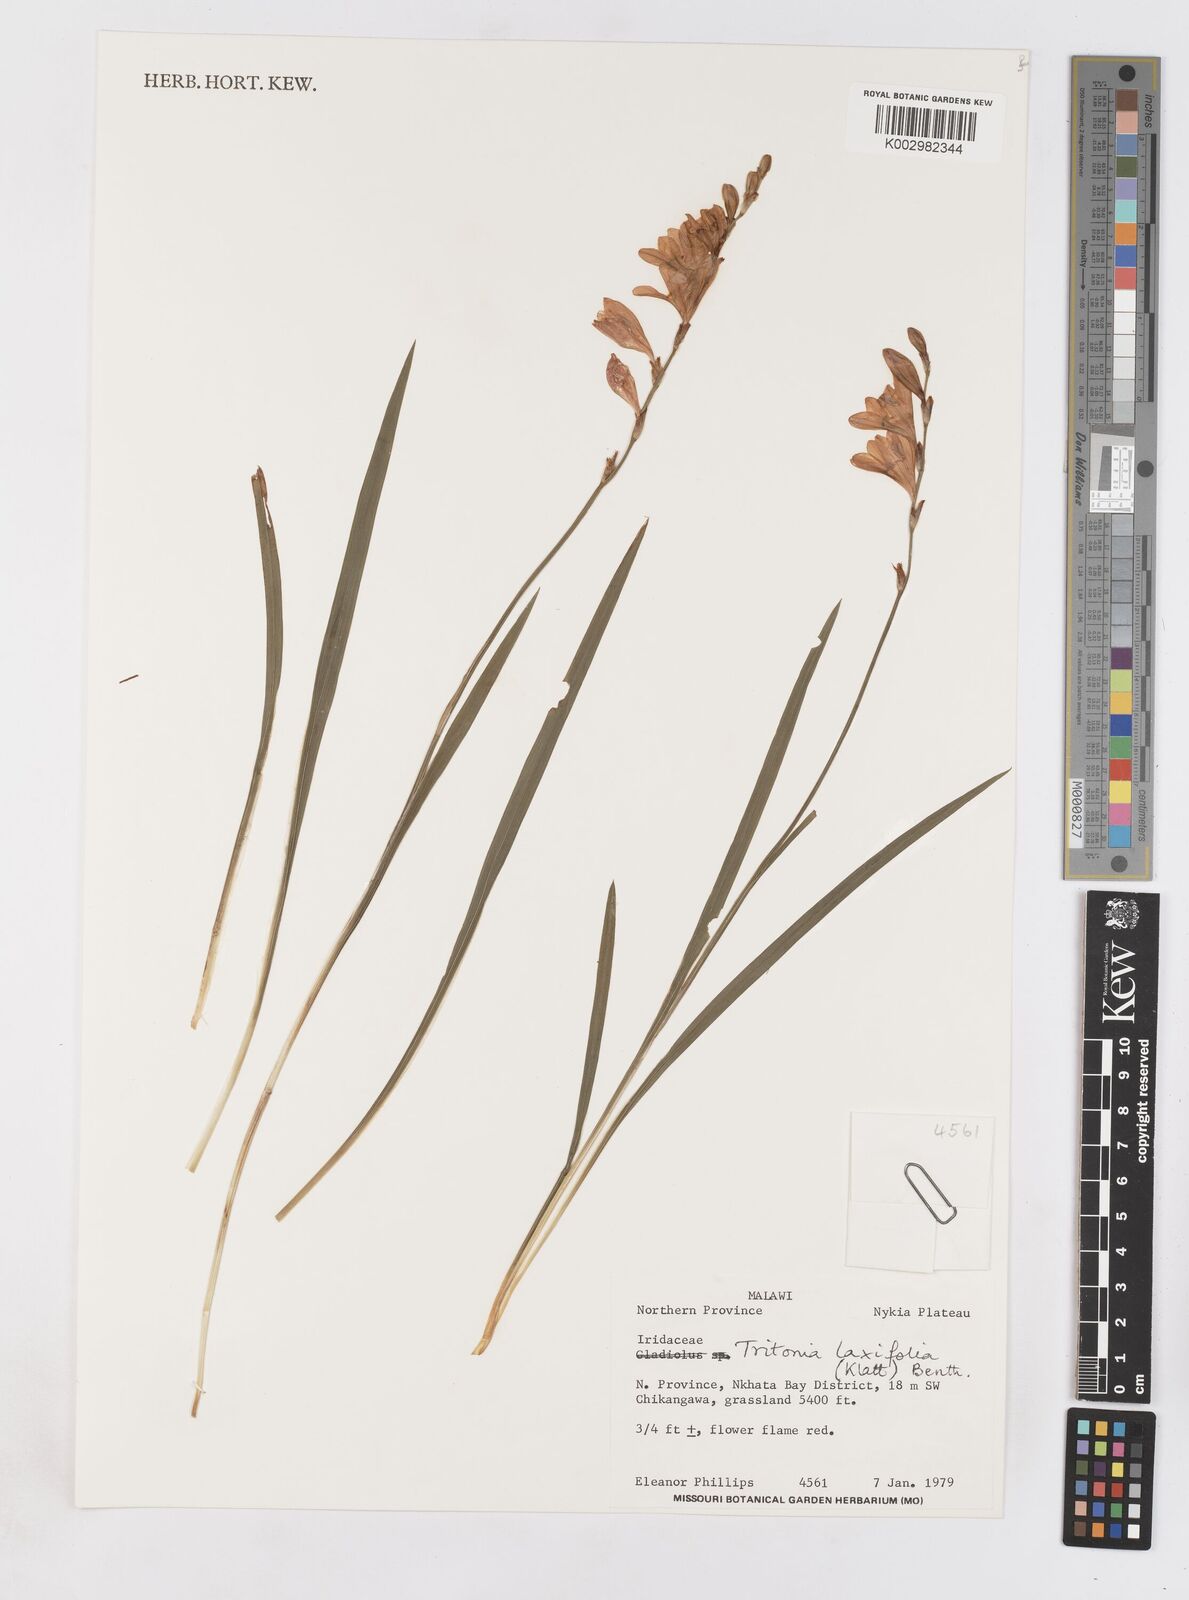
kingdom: Plantae
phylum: Tracheophyta
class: Liliopsida
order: Asparagales
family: Iridaceae
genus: Tritonia
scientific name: Tritonia laxifolia
